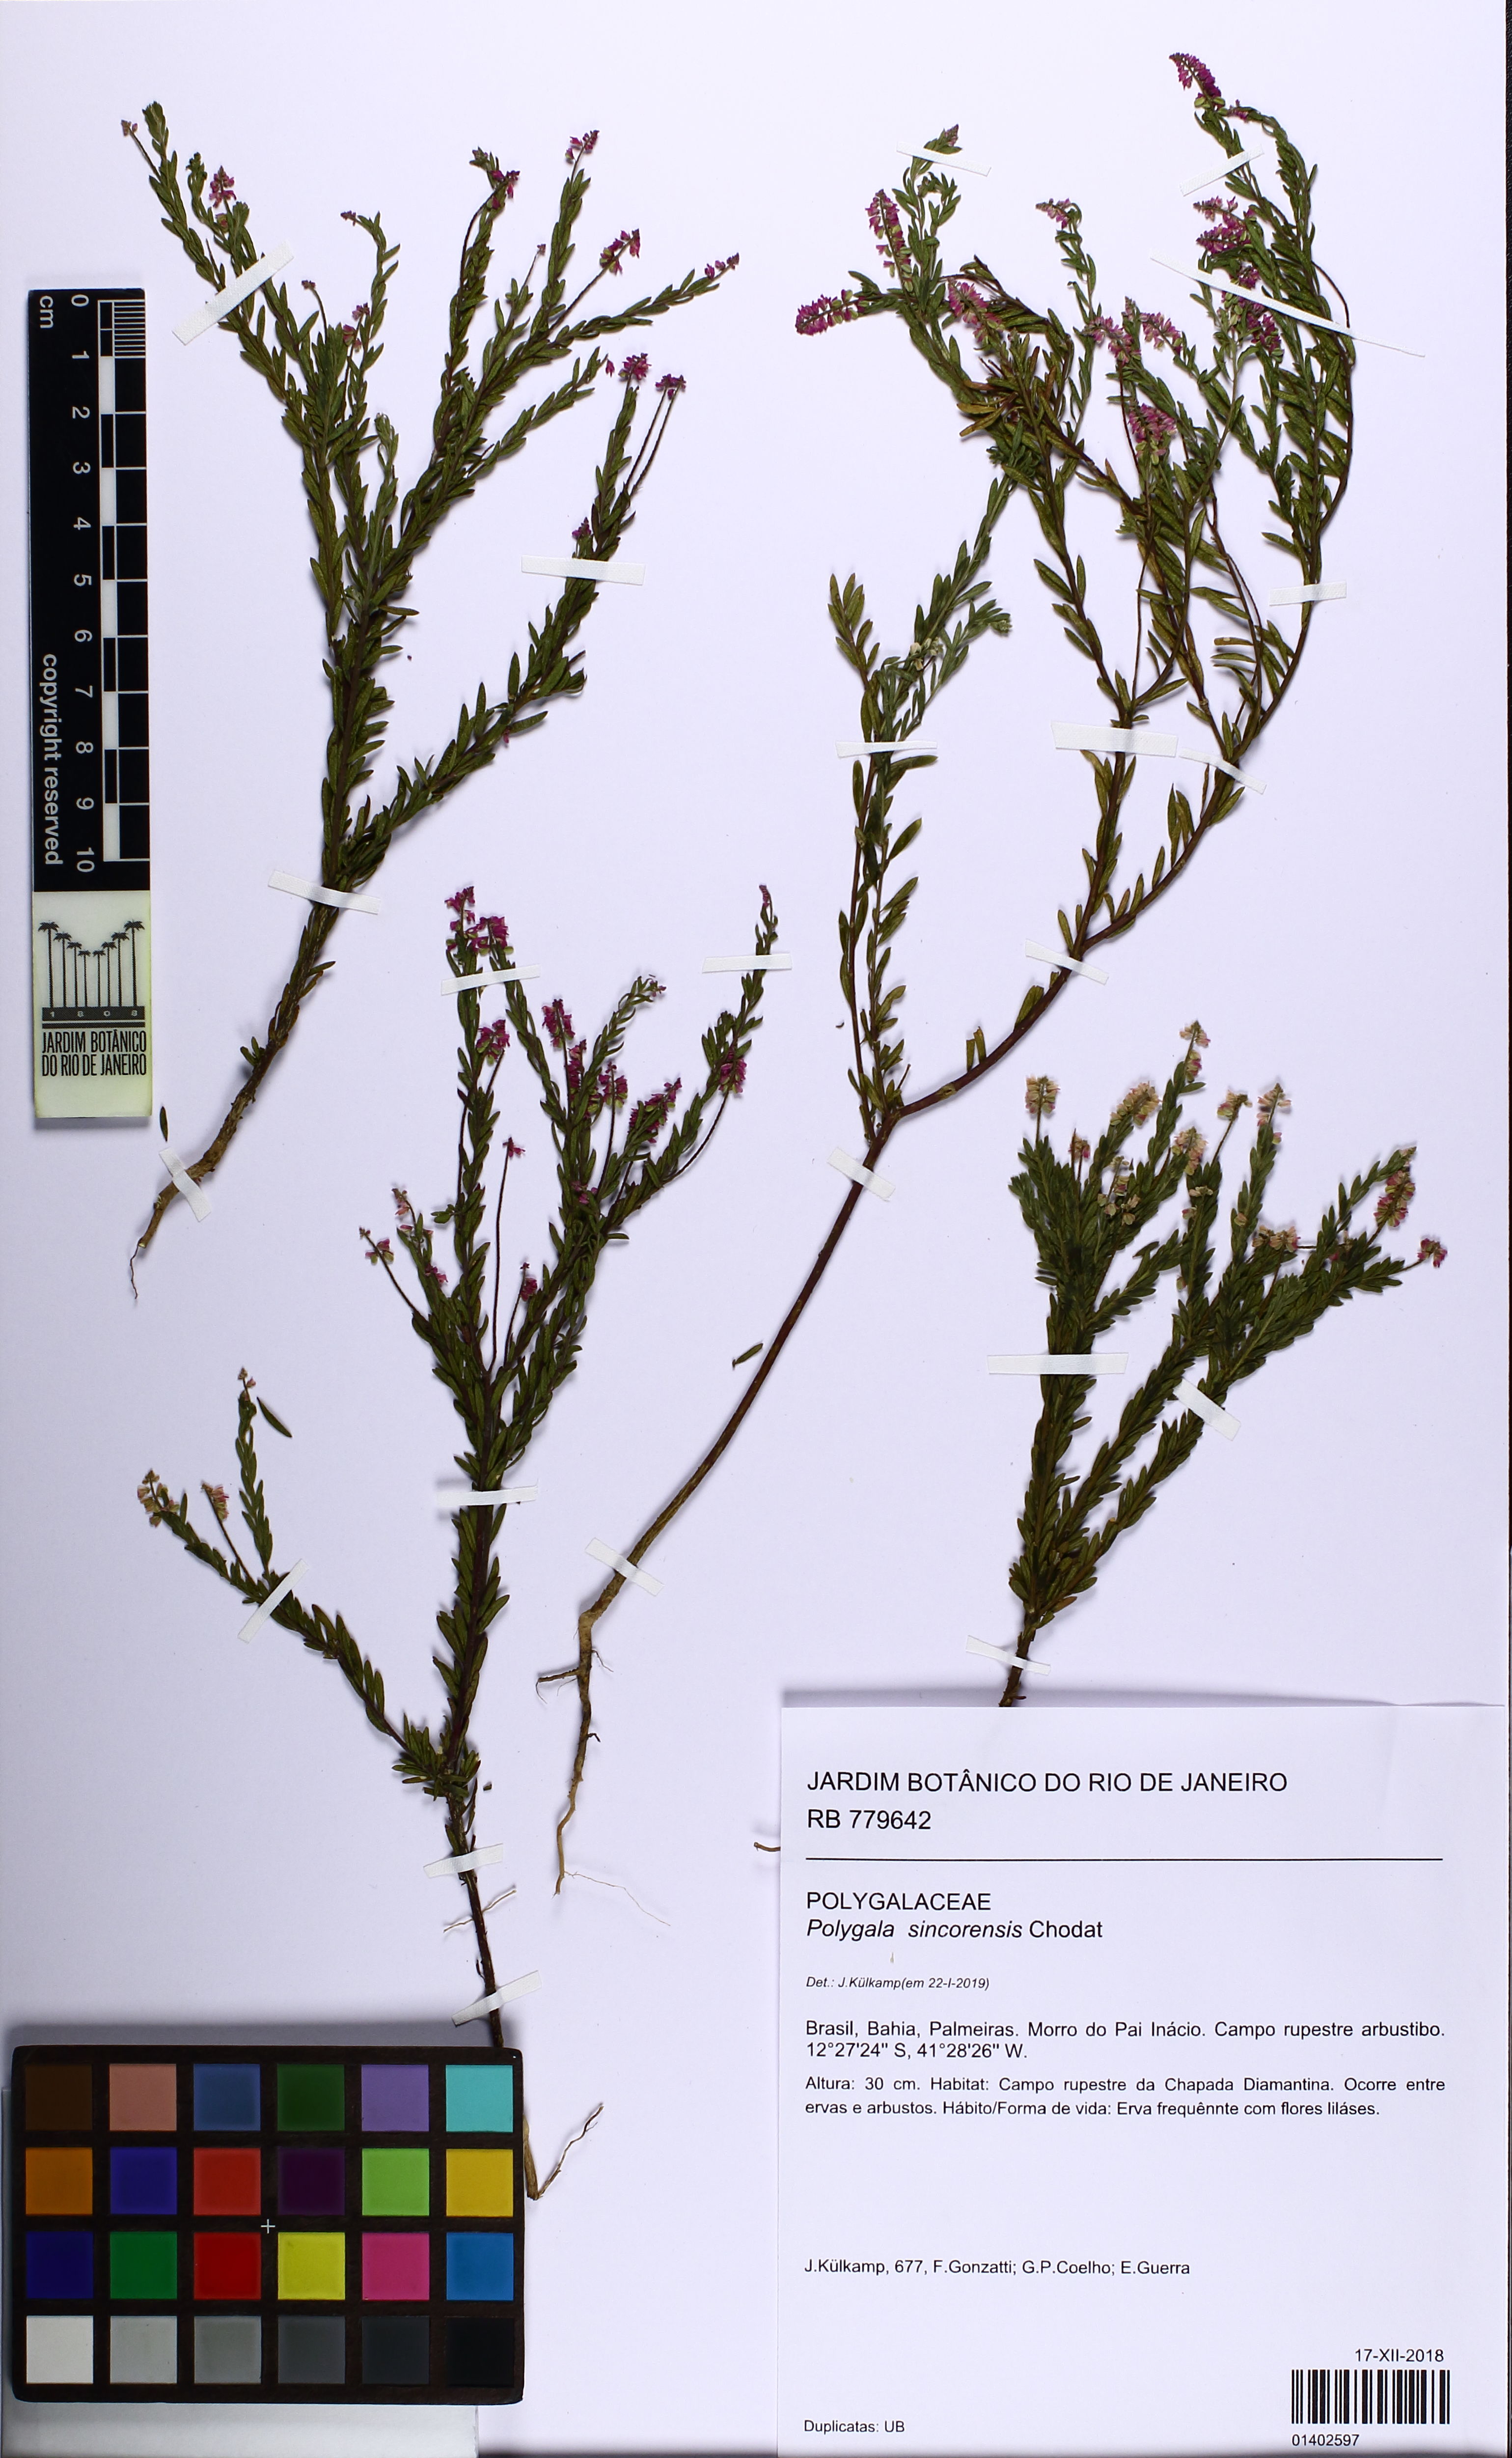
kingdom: Plantae
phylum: Tracheophyta
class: Magnoliopsida
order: Fabales
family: Polygalaceae
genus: Polygala
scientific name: Polygala sincorensis
